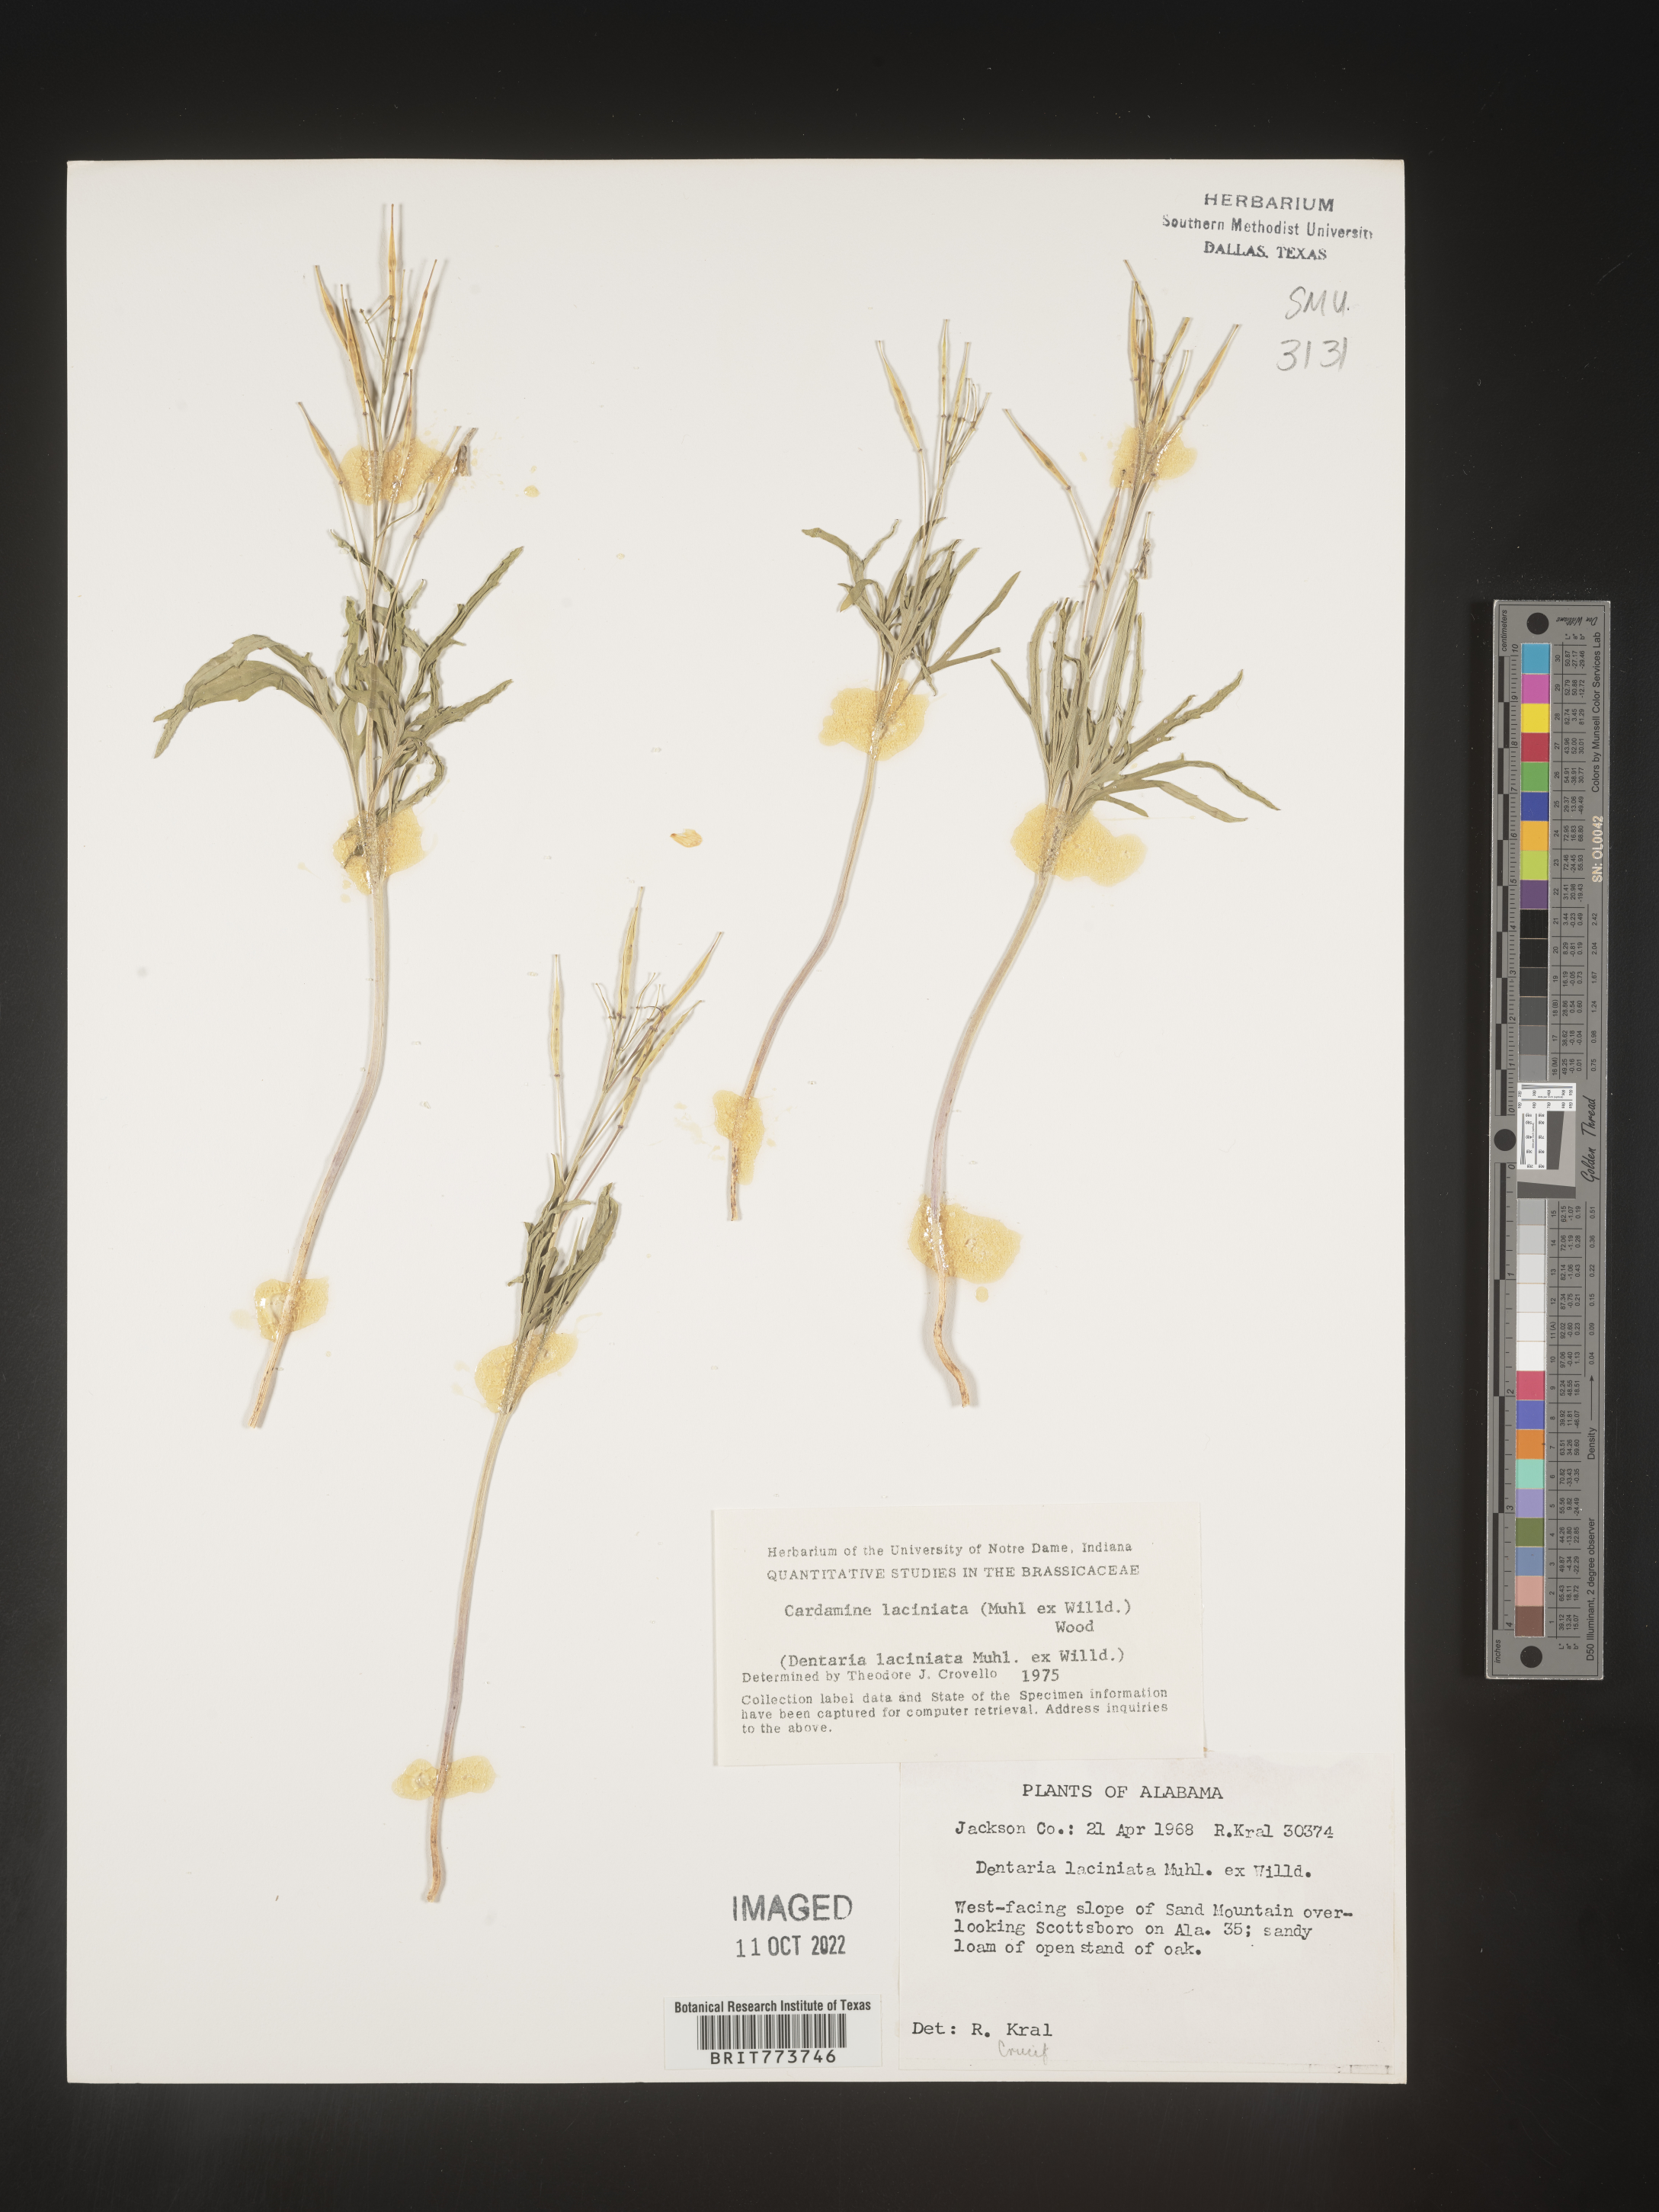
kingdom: Plantae
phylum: Tracheophyta
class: Magnoliopsida
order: Brassicales
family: Brassicaceae
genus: Rorippa
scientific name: Rorippa laciniata
